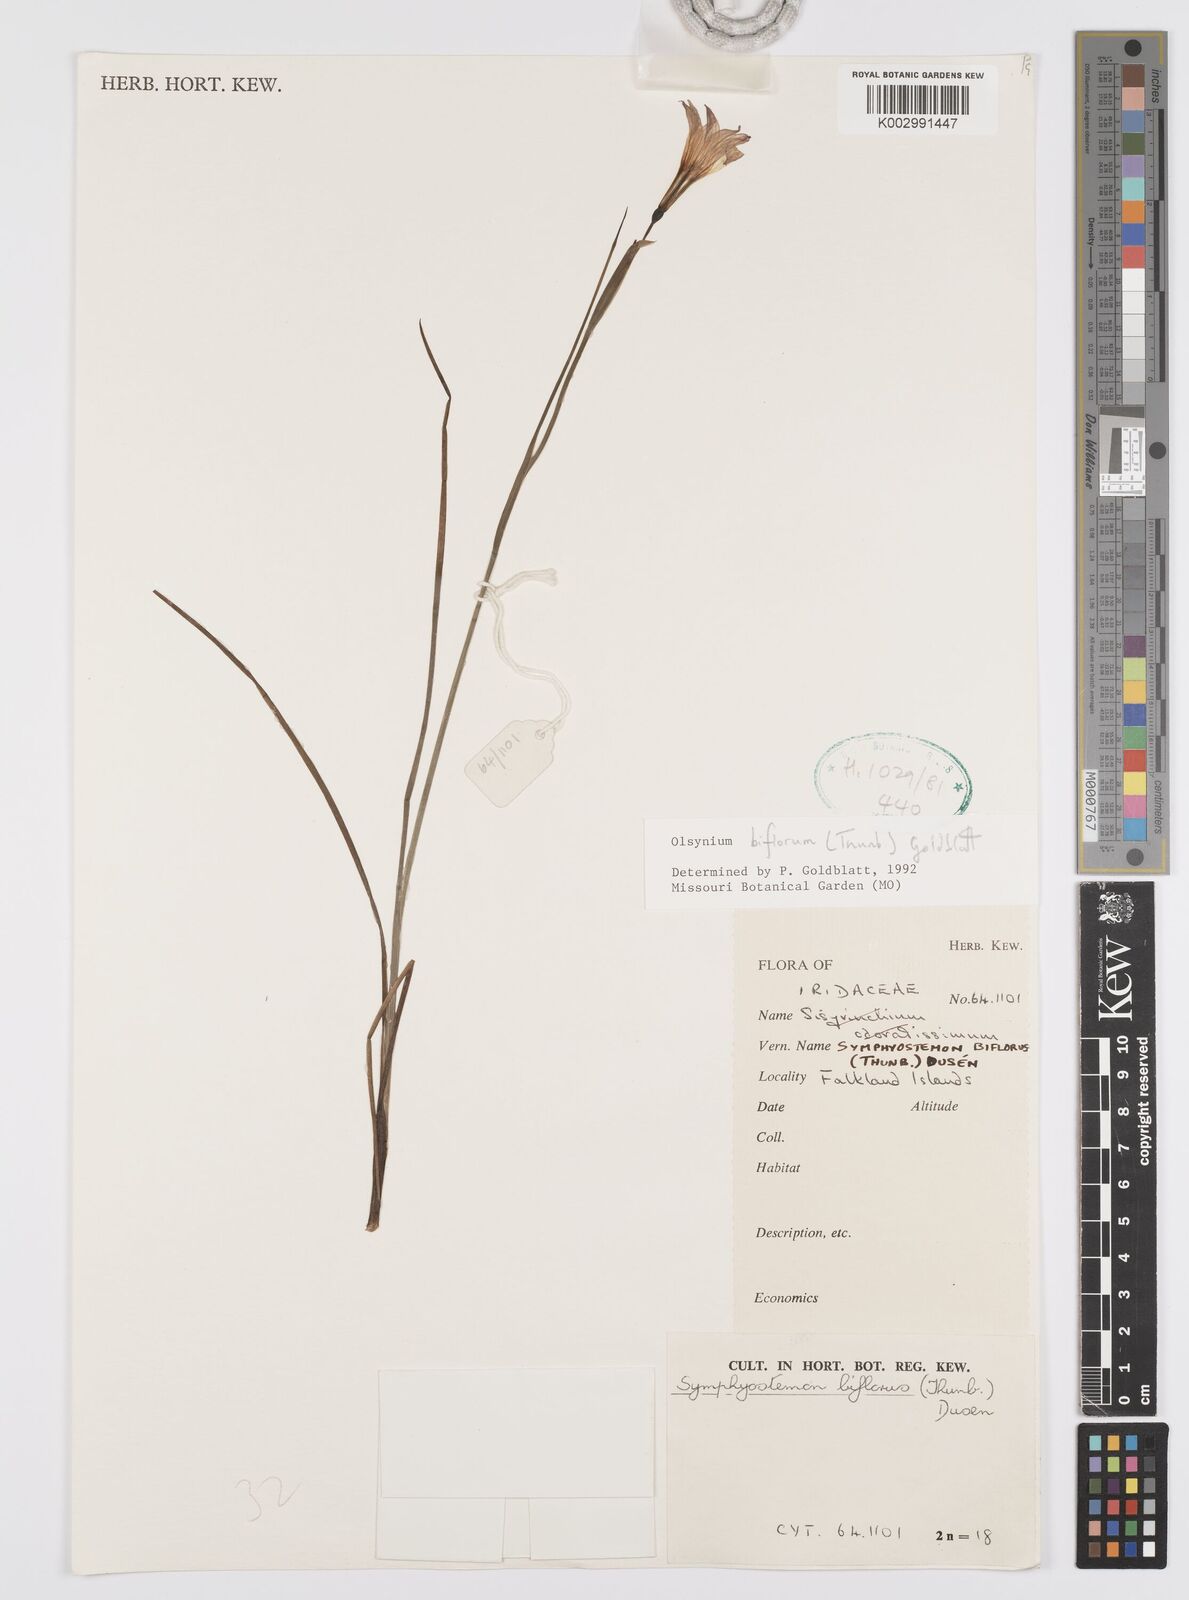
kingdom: Plantae
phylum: Tracheophyta
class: Liliopsida
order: Asparagales
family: Iridaceae
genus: Olsynium
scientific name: Olsynium biflorum
